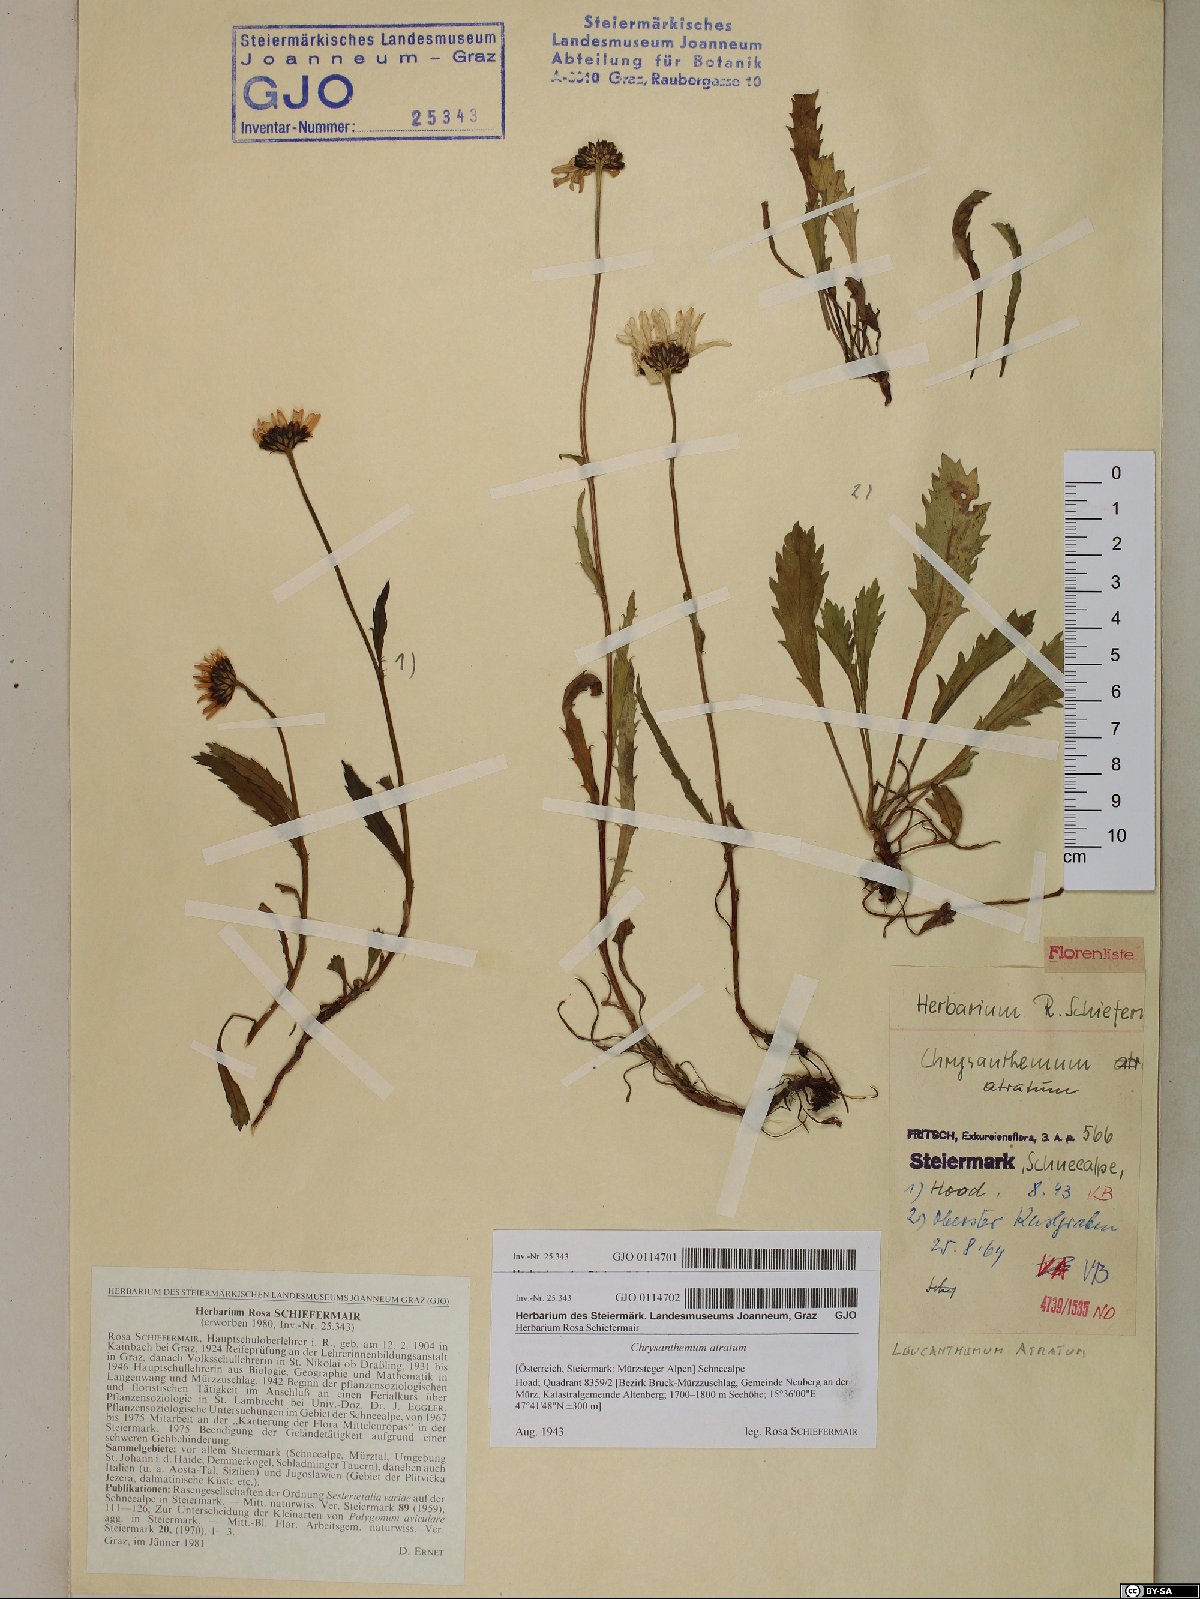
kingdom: Plantae
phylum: Tracheophyta
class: Magnoliopsida
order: Asterales
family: Asteraceae
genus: Leucanthemum
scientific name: Leucanthemum atratum
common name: Saw-leaved moon-daisy
